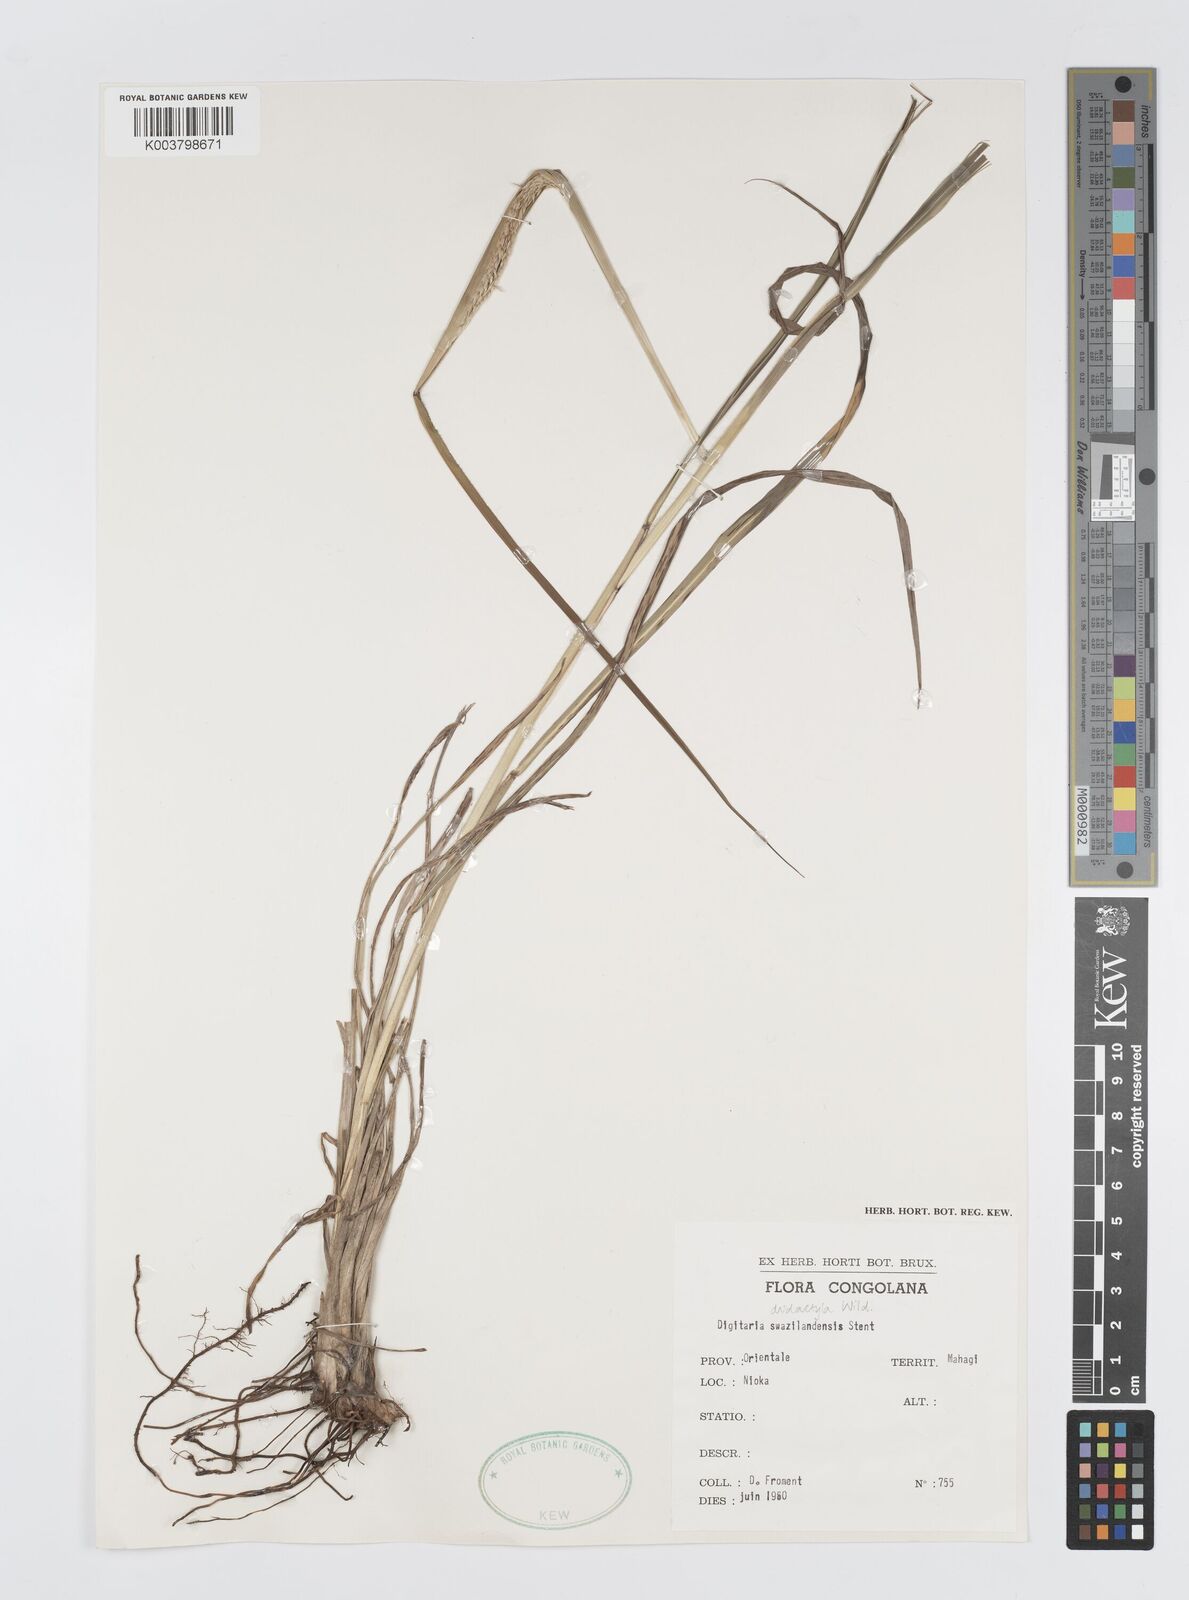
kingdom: Plantae
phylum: Tracheophyta
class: Liliopsida
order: Poales
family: Poaceae
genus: Digitaria
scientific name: Digitaria didactyla
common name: Blue couch
